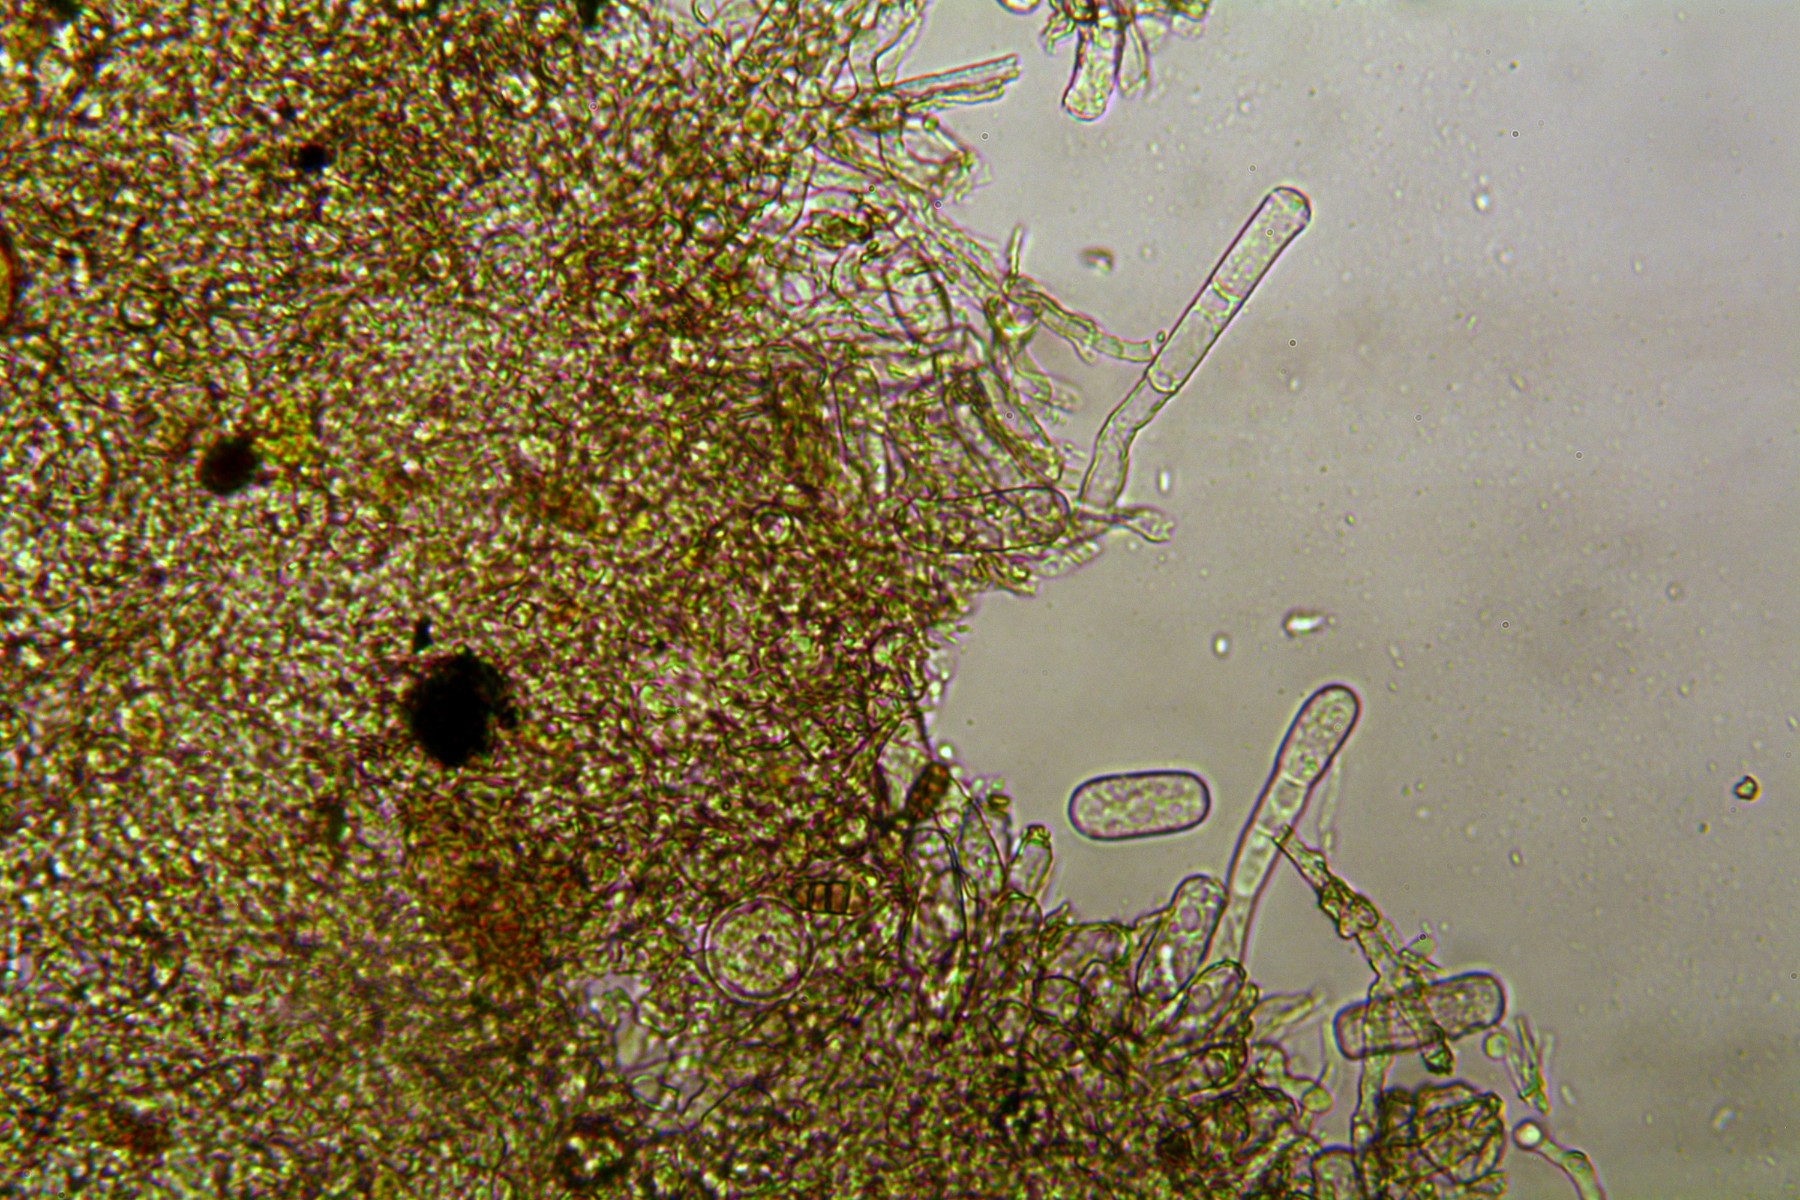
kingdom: Fungi
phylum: Ascomycota
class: Leotiomycetes
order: Helotiales
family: Erysiphaceae
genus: Erysiphe
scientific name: Erysiphe berberidis
